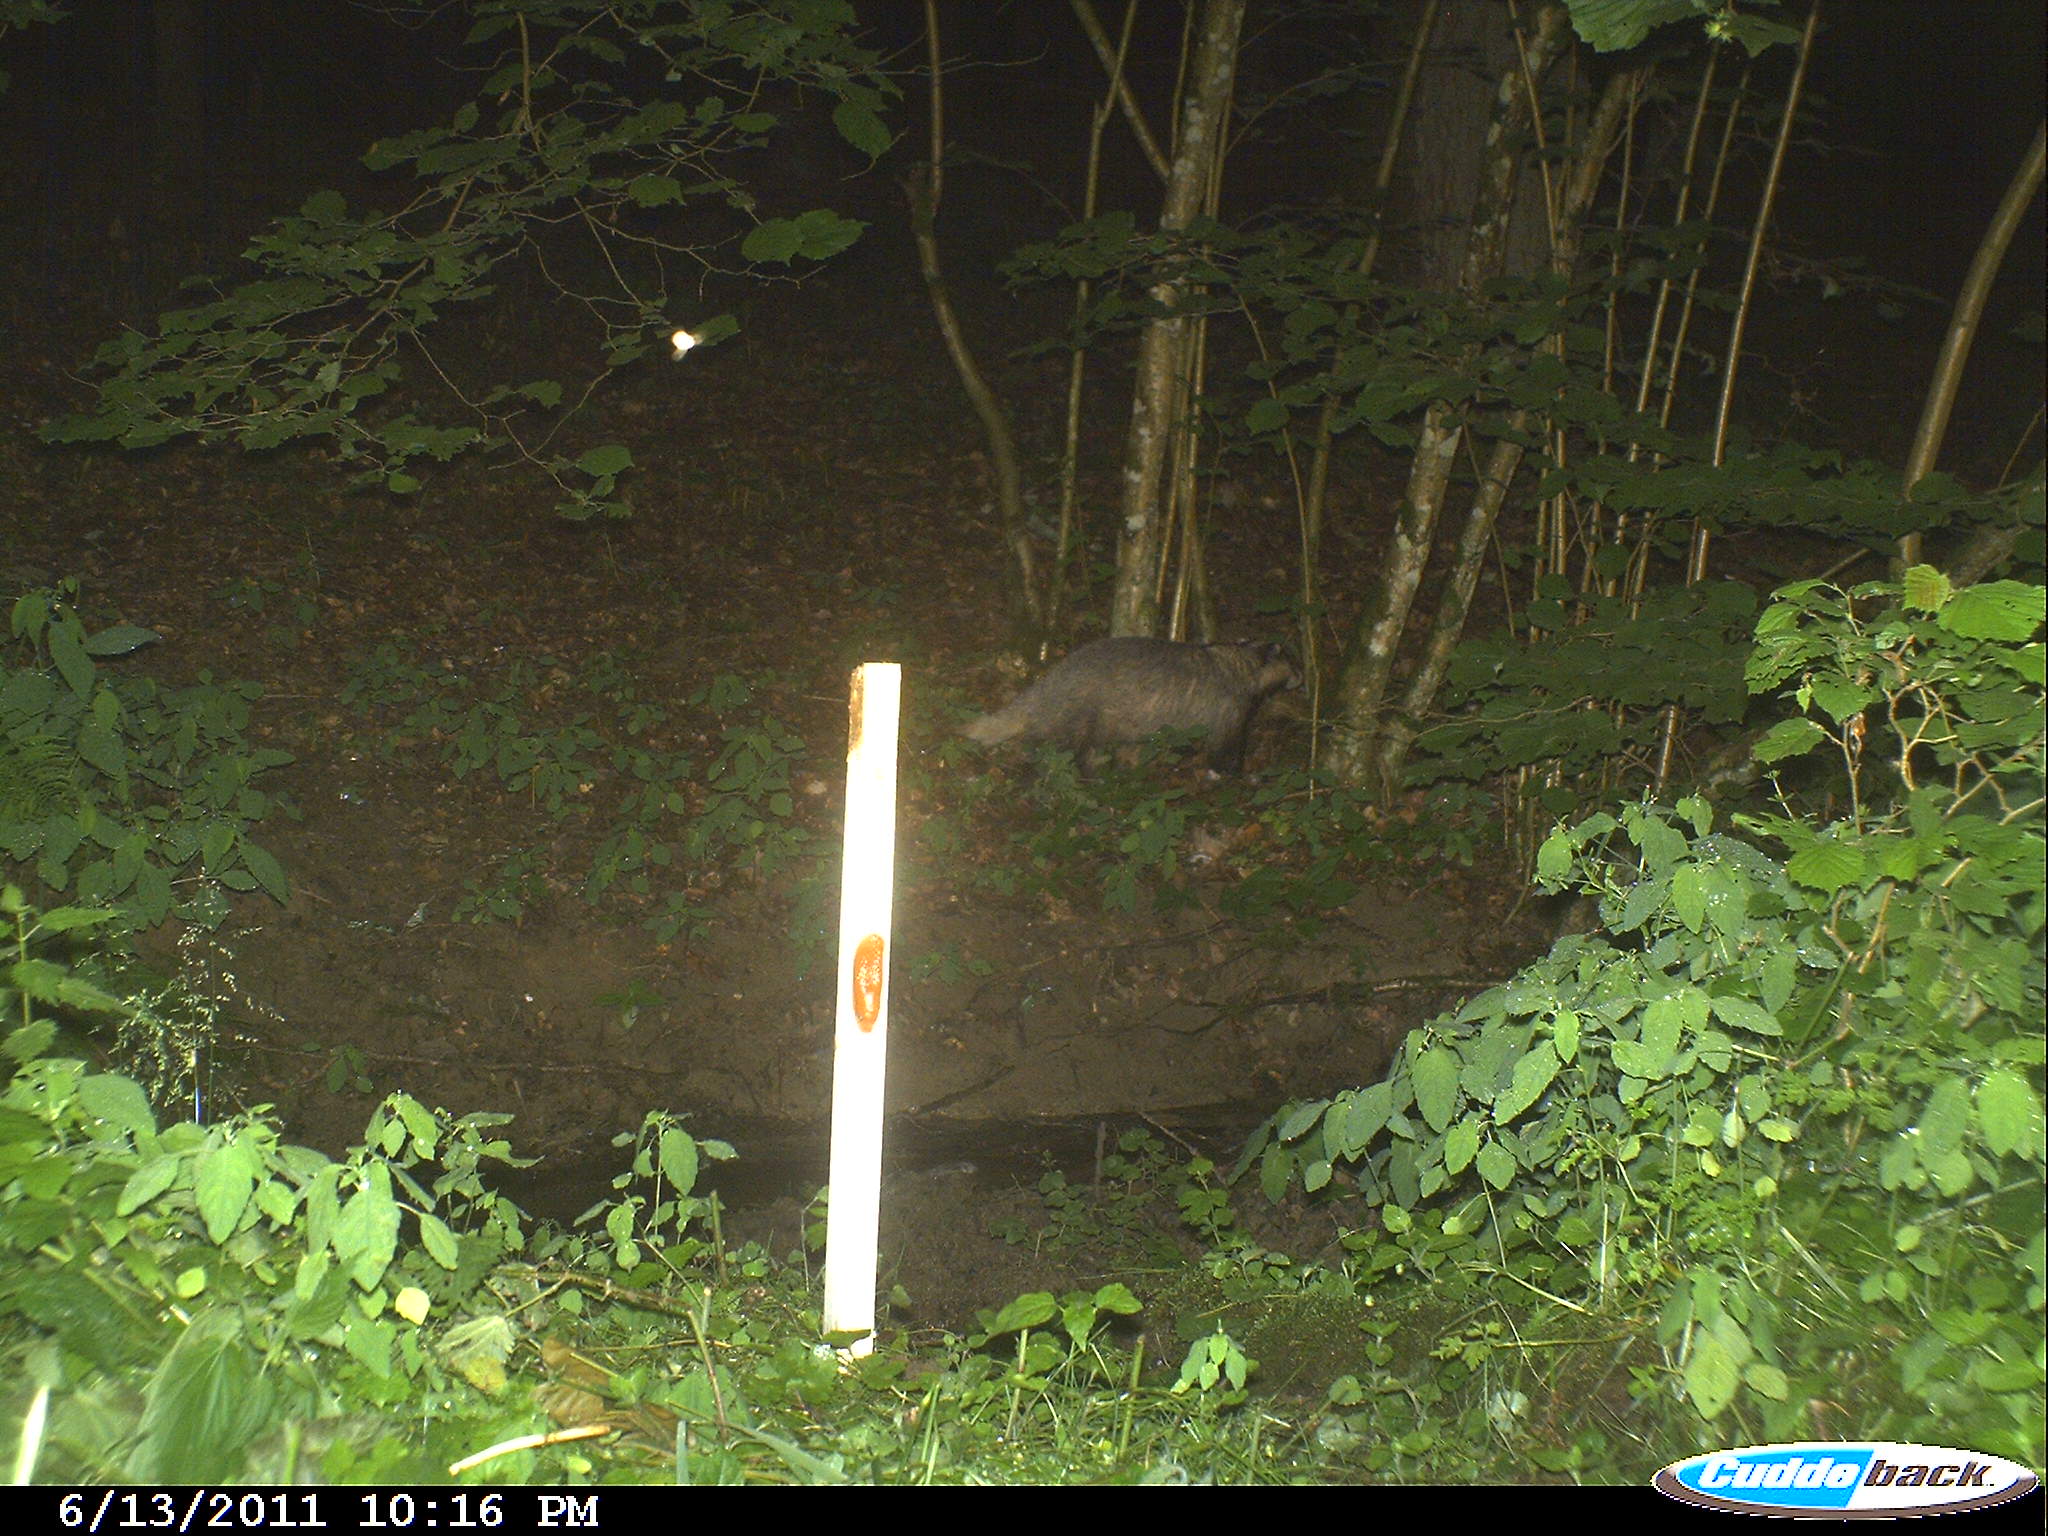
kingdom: Animalia
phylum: Chordata
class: Mammalia
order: Carnivora
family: Mustelidae
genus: Meles
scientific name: Meles meles
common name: Eurasian badger
